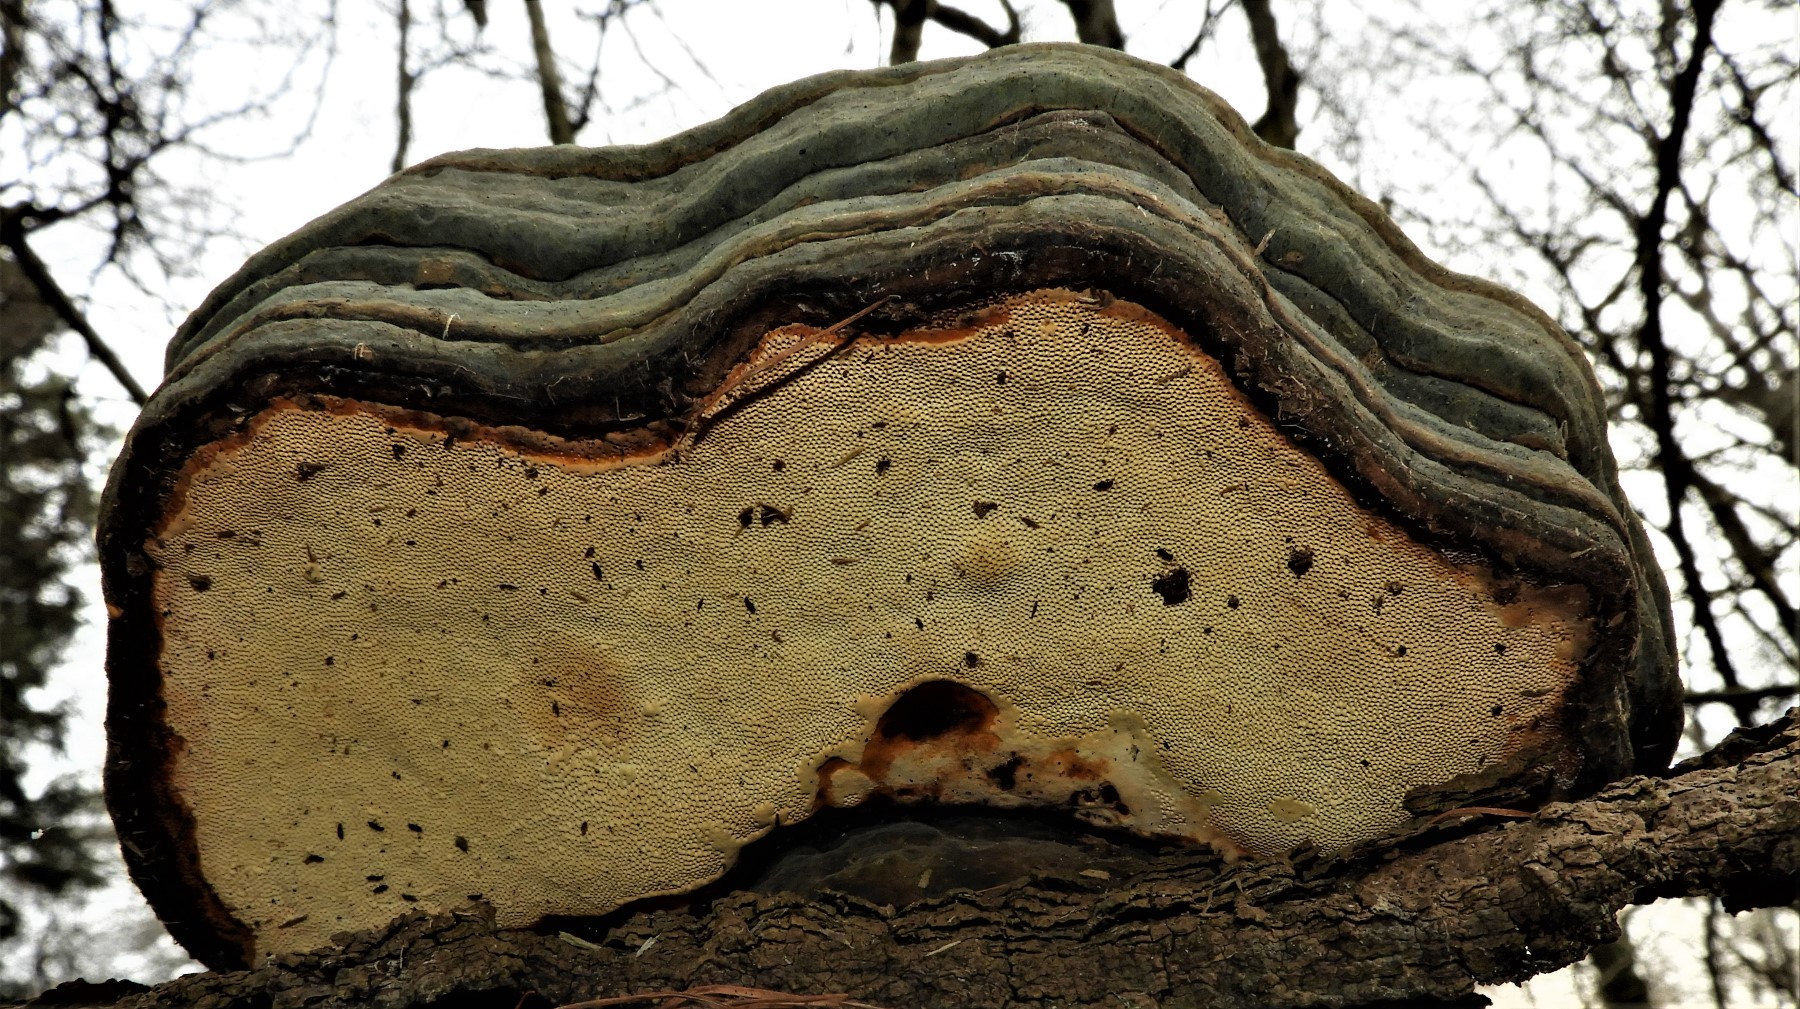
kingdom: Fungi
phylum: Basidiomycota
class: Agaricomycetes
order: Polyporales
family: Polyporaceae
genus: Fomes
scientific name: Fomes fomentarius
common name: tøndersvamp
